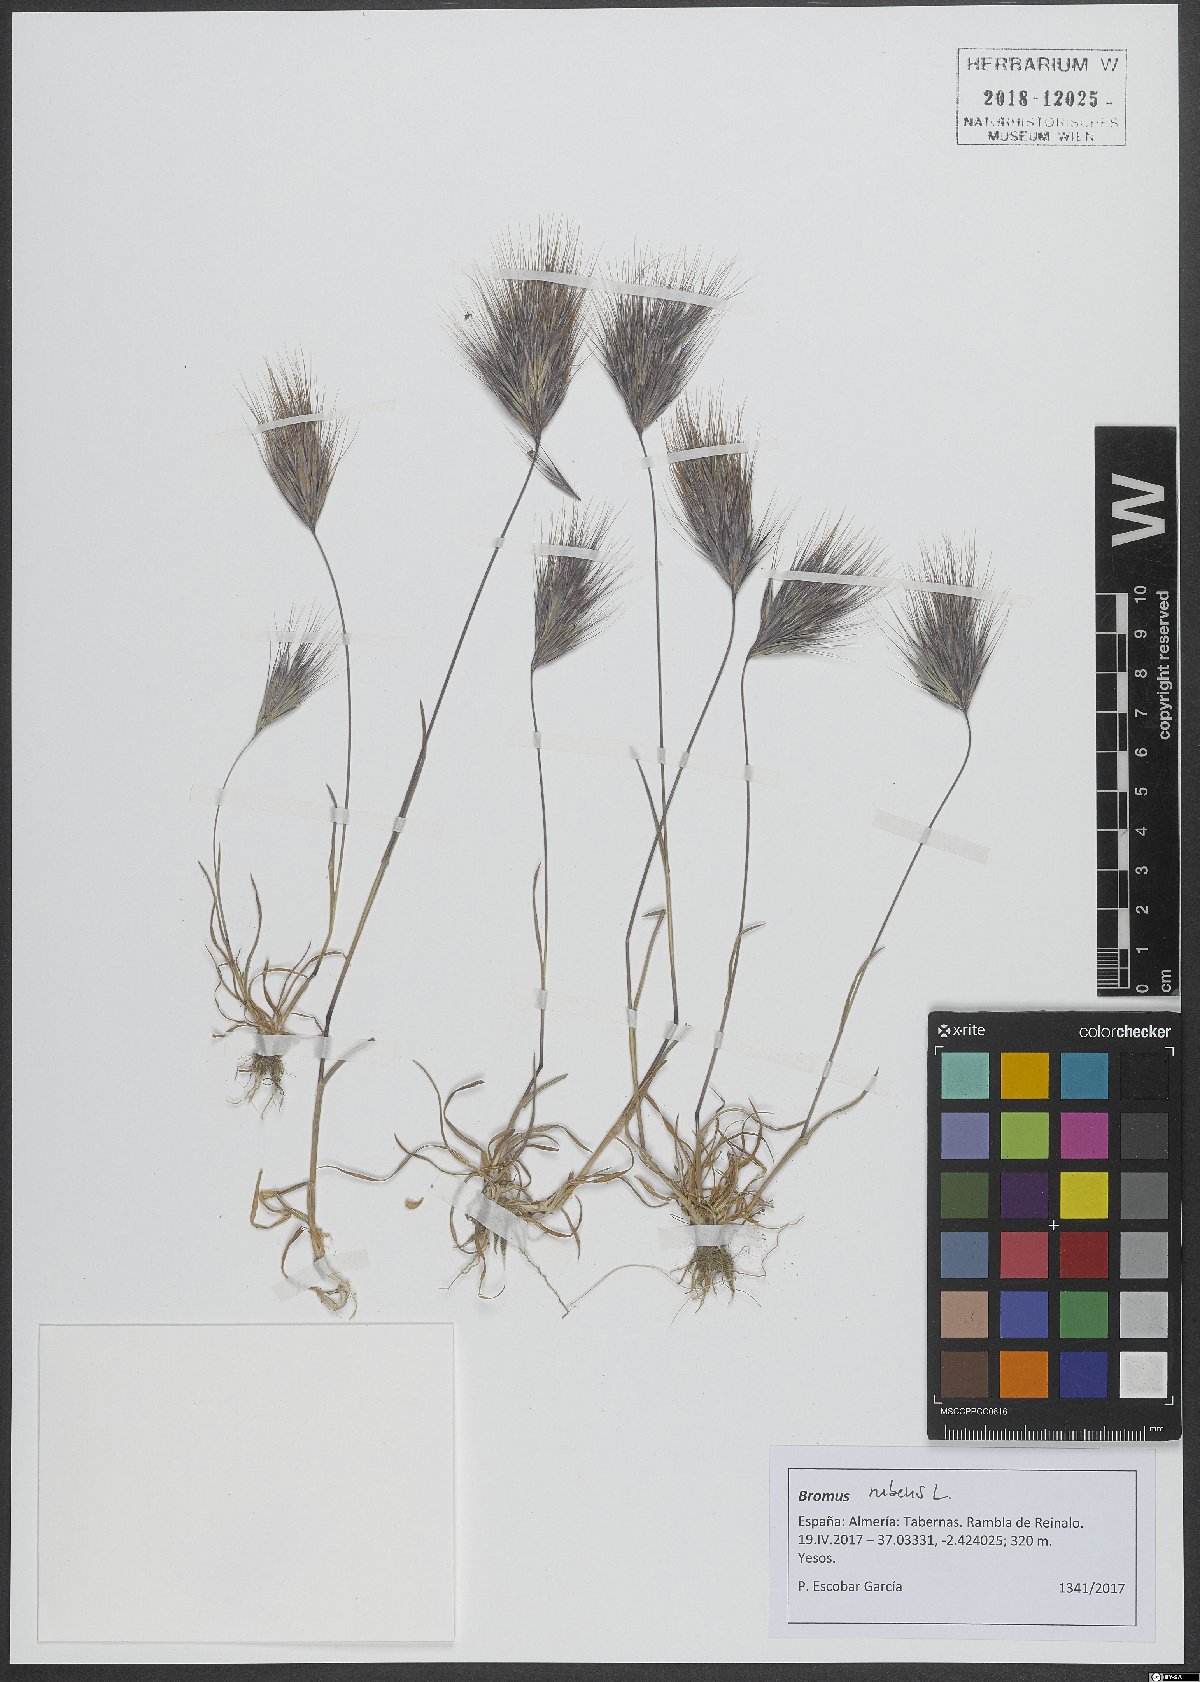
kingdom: Plantae
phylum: Tracheophyta
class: Liliopsida
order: Poales
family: Poaceae
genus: Bromus
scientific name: Bromus rubens
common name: Red brome
